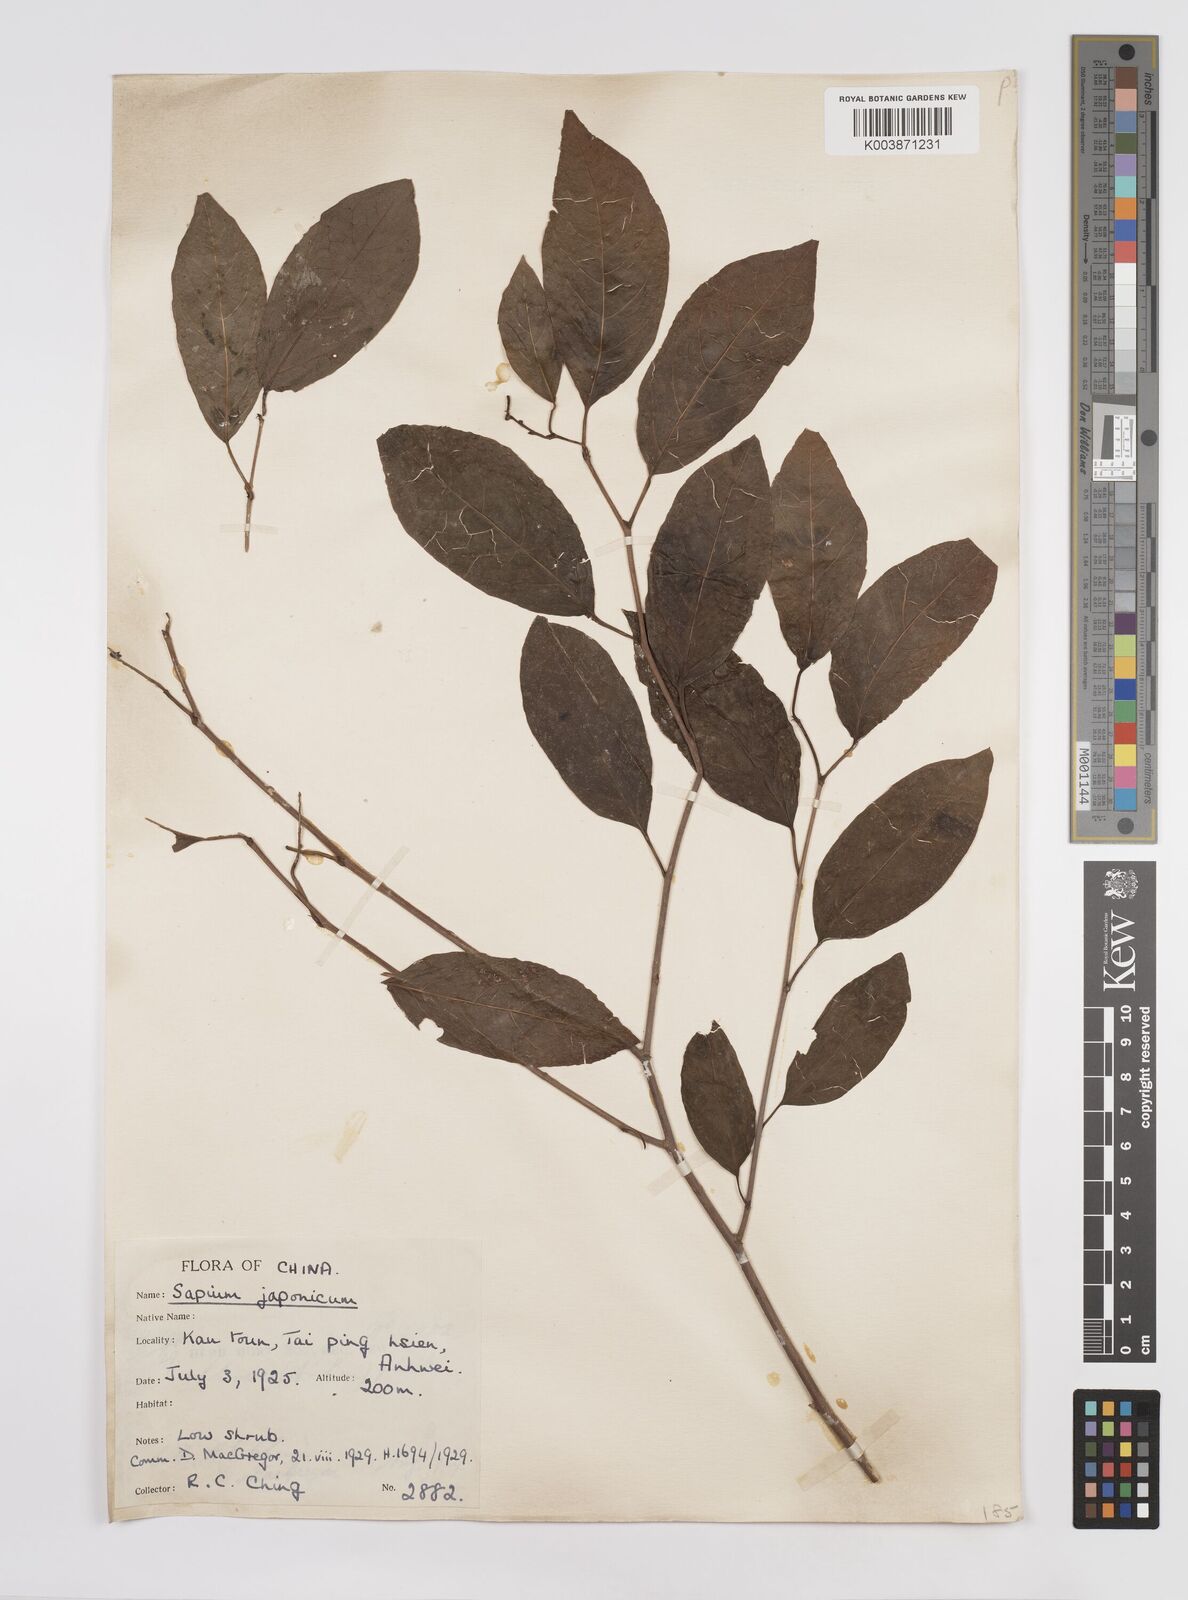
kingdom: Plantae
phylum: Tracheophyta
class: Magnoliopsida
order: Malpighiales
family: Euphorbiaceae
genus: Neoshirakia
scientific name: Neoshirakia japonica
